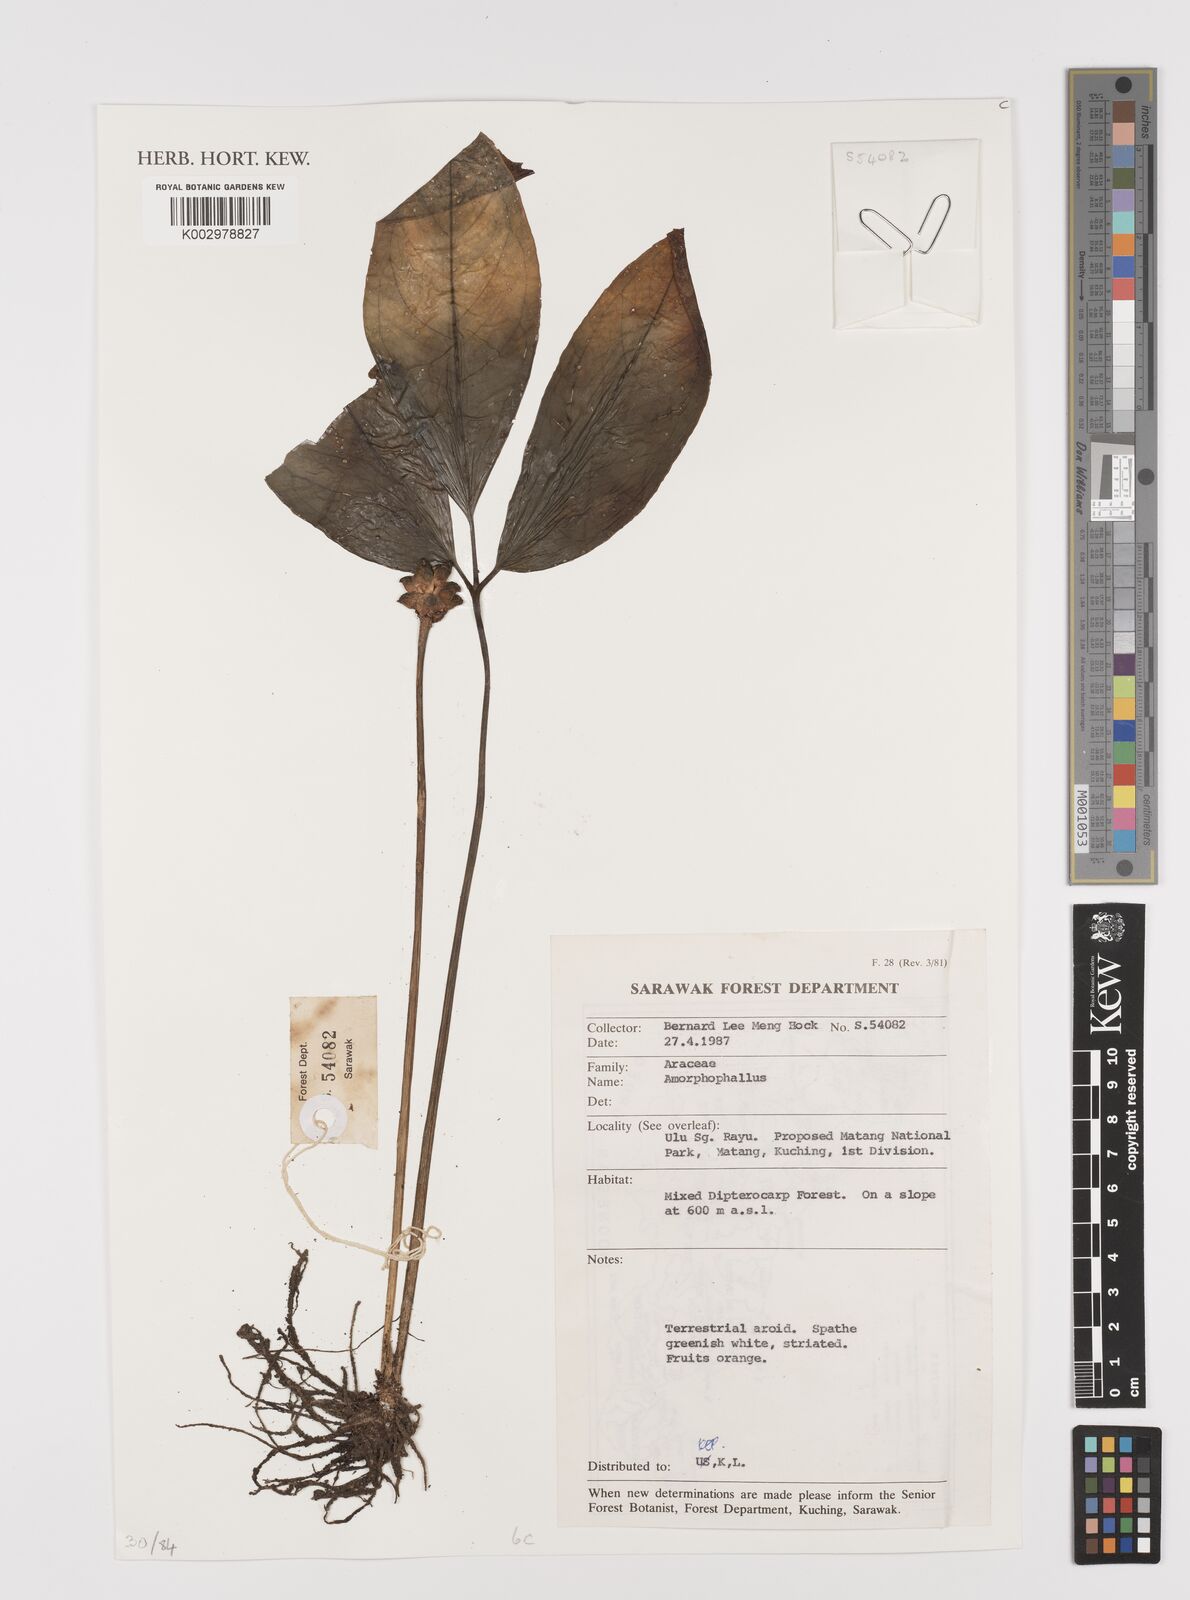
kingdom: Plantae
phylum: Tracheophyta
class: Liliopsida
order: Alismatales
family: Araceae
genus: Amorphophallus
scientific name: Amorphophallus
